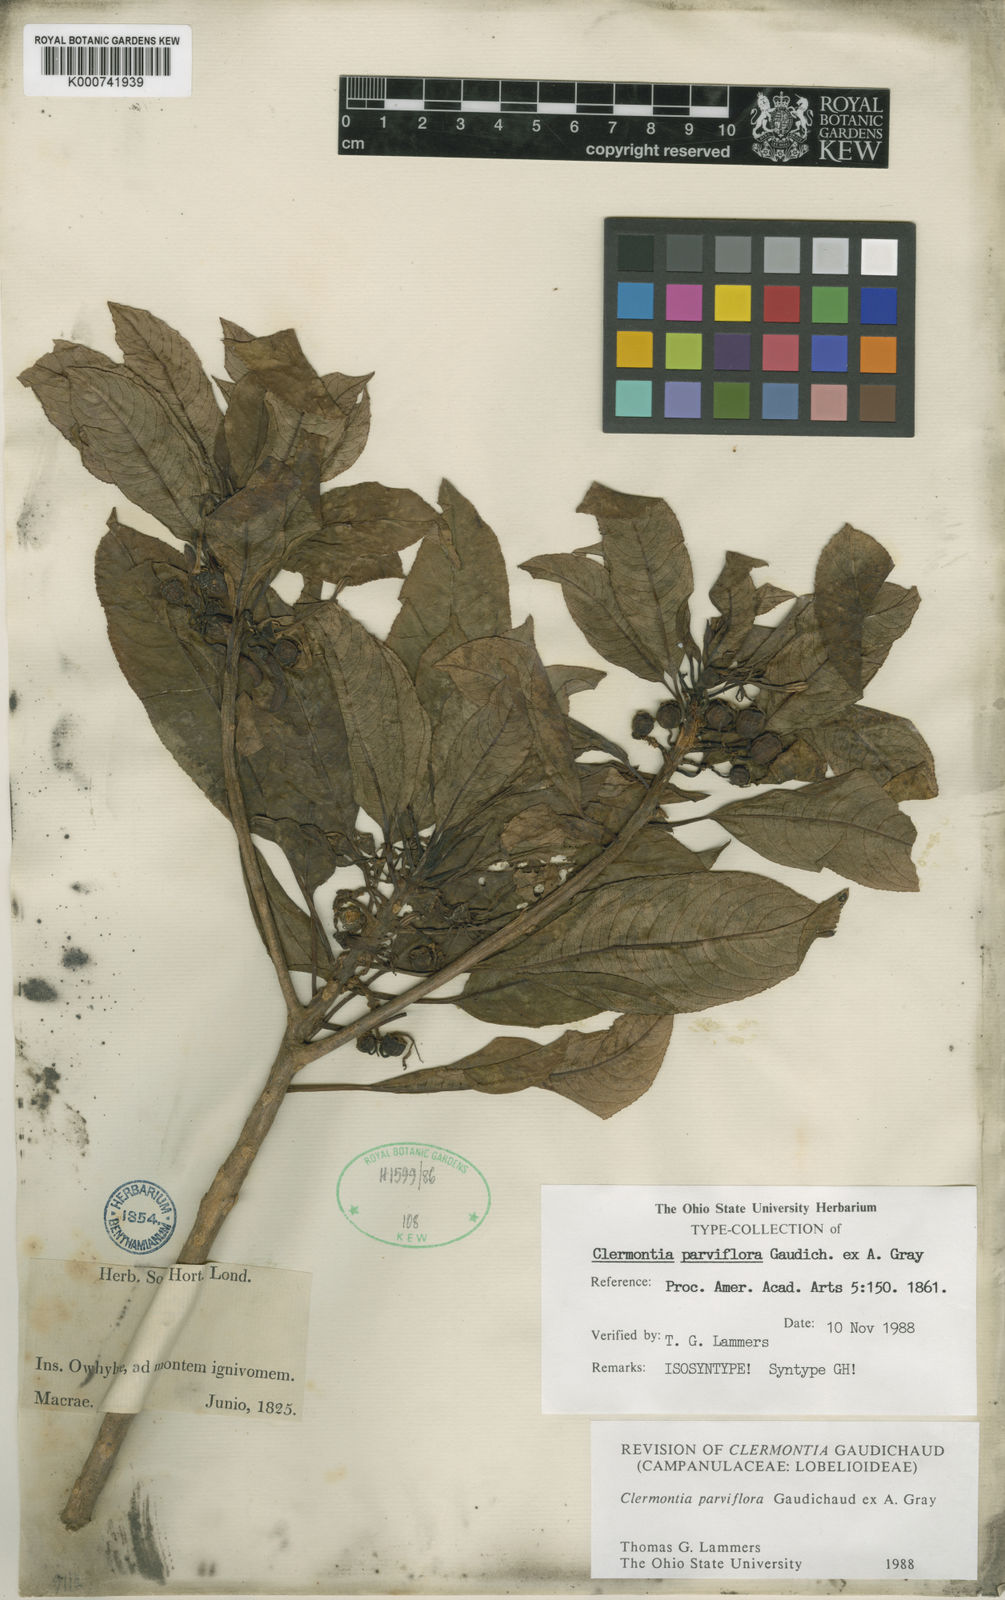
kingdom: Plantae
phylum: Tracheophyta
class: Magnoliopsida
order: Asterales
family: Campanulaceae
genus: Clermontia
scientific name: Clermontia parviflora
